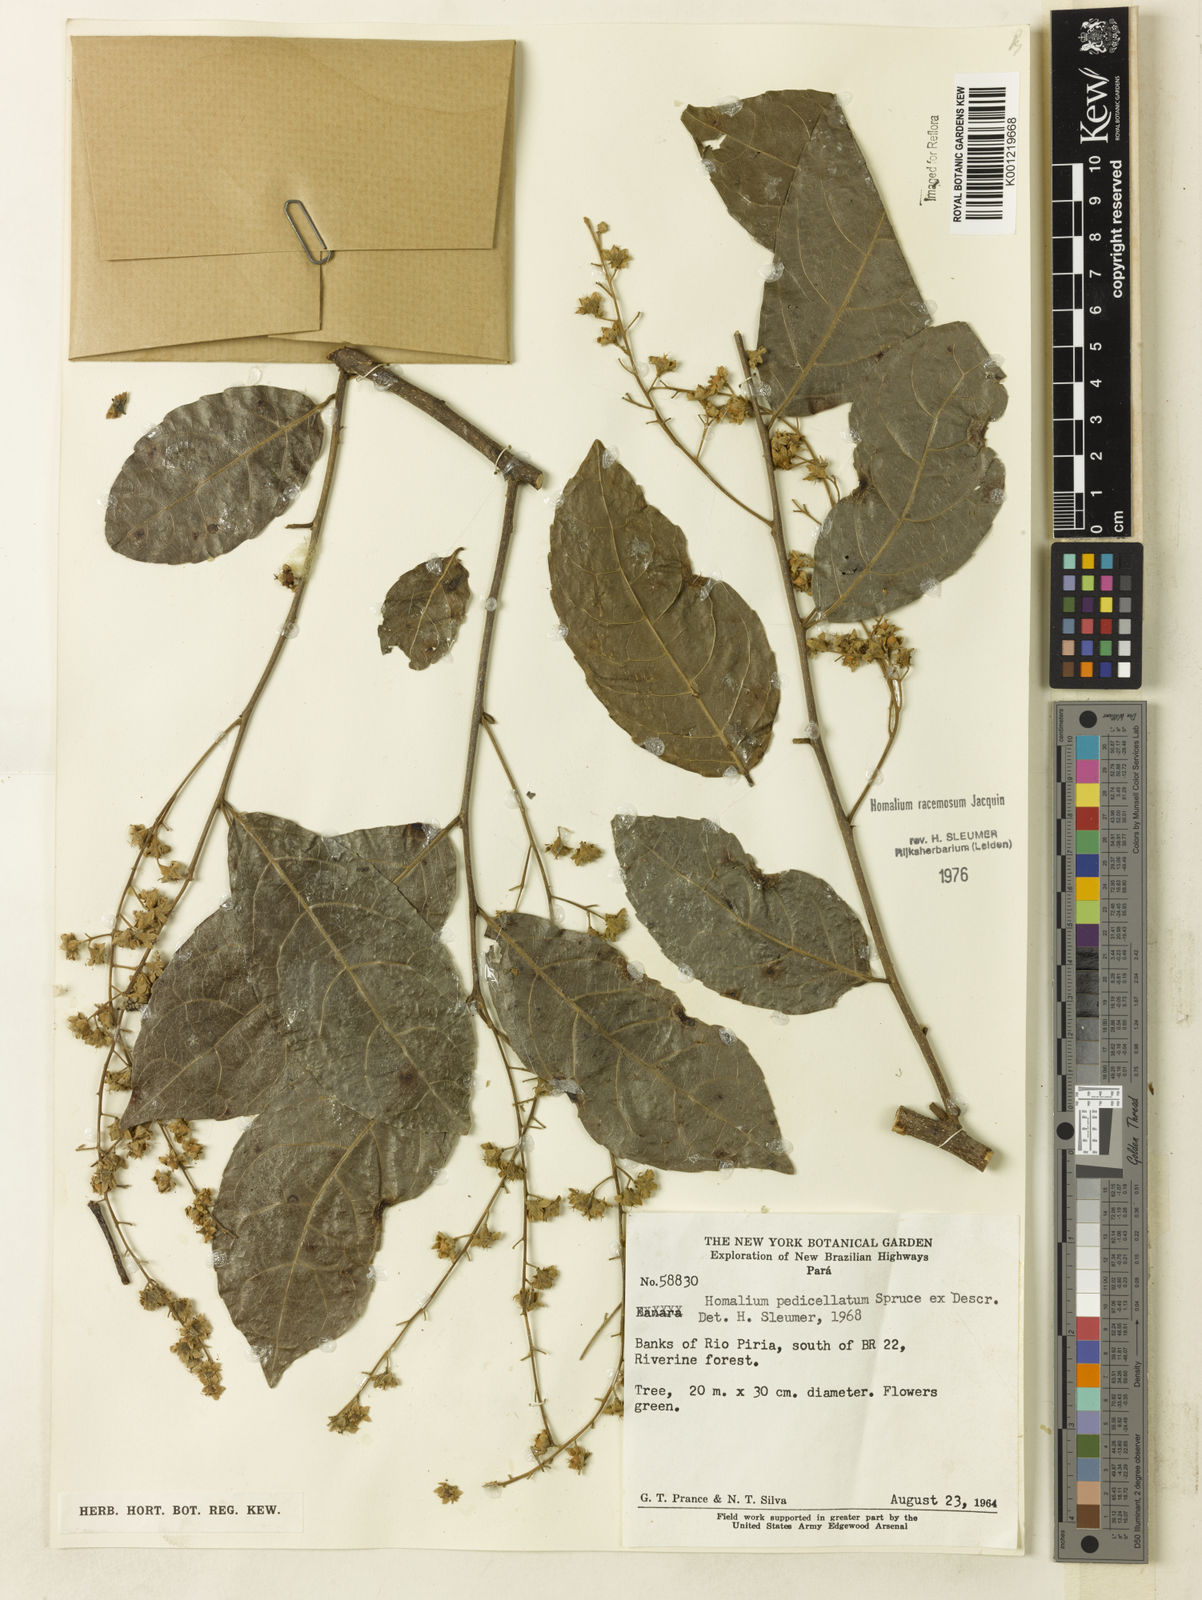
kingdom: Plantae
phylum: Tracheophyta
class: Magnoliopsida
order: Malpighiales
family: Salicaceae
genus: Homalium
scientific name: Homalium racemosum
